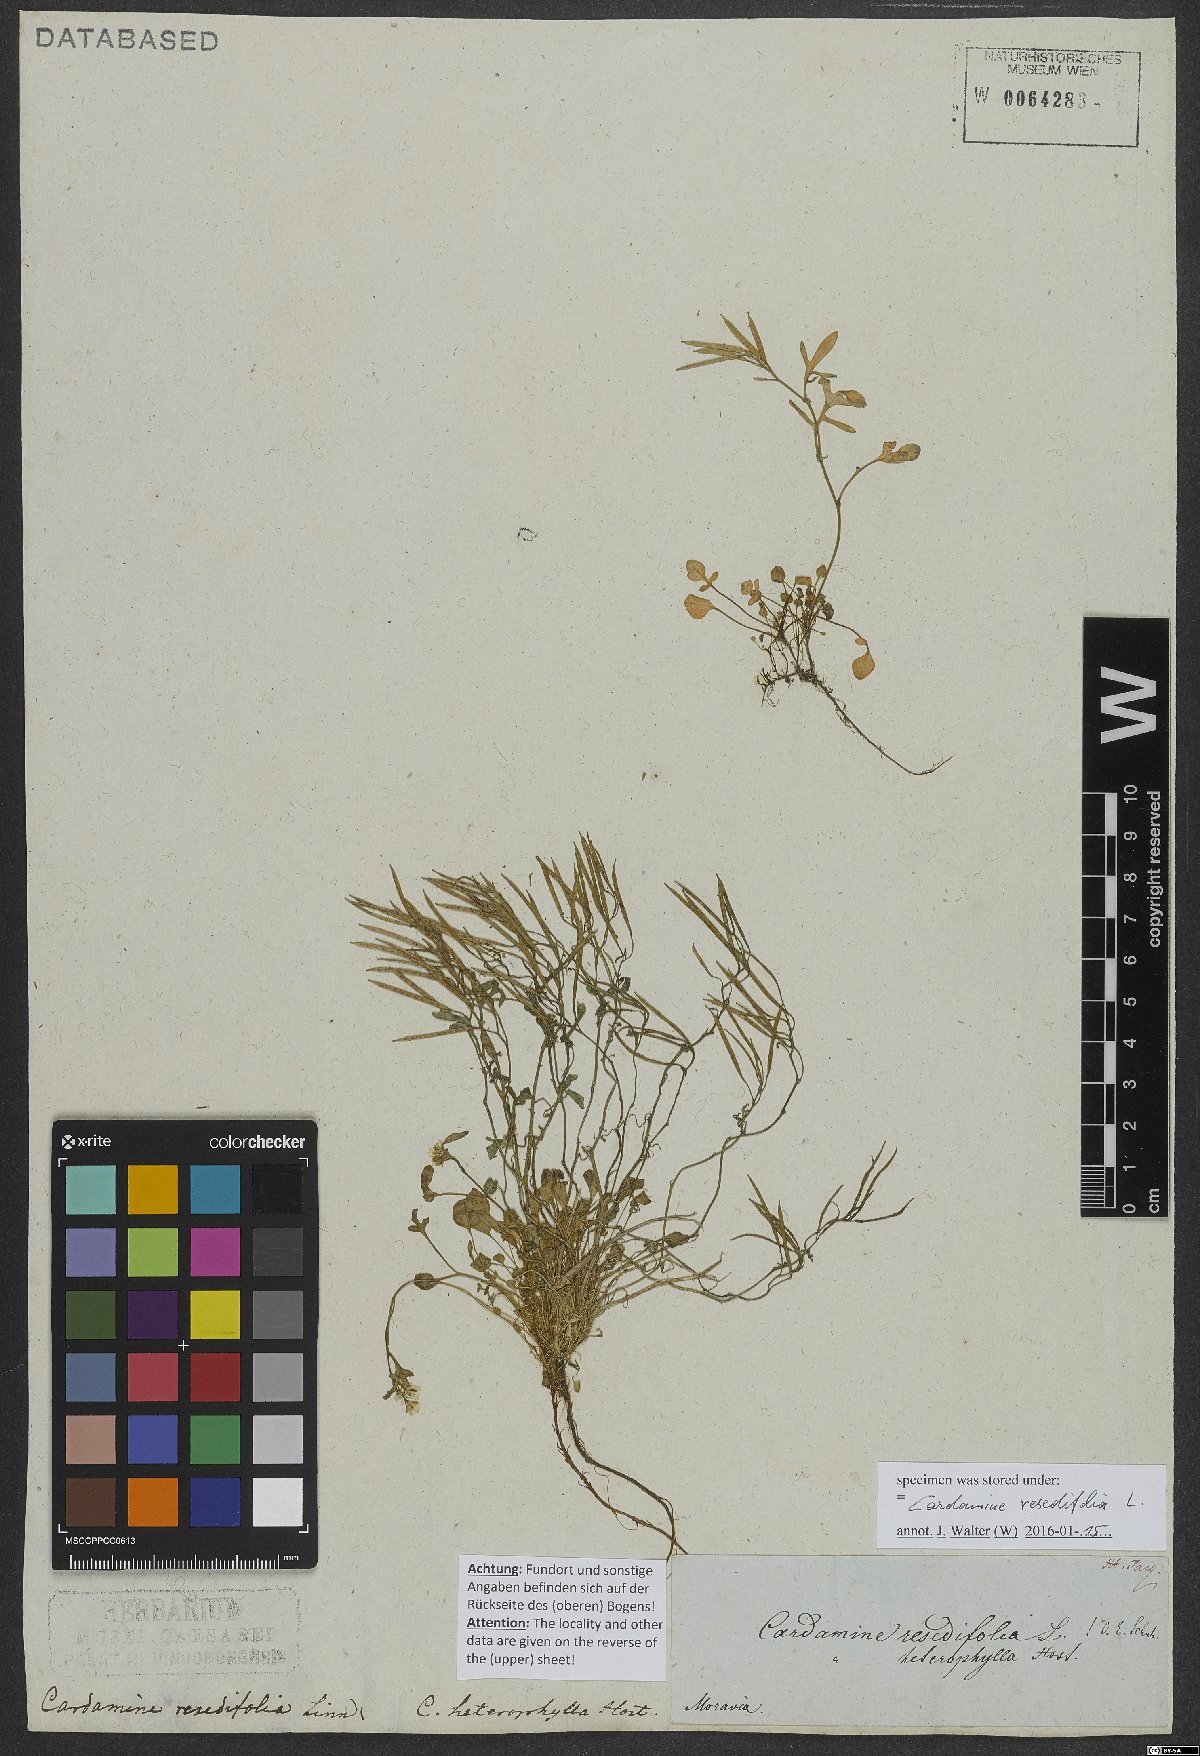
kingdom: Plantae
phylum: Tracheophyta
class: Magnoliopsida
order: Brassicales
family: Brassicaceae
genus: Cardamine
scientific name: Cardamine resedifolia
